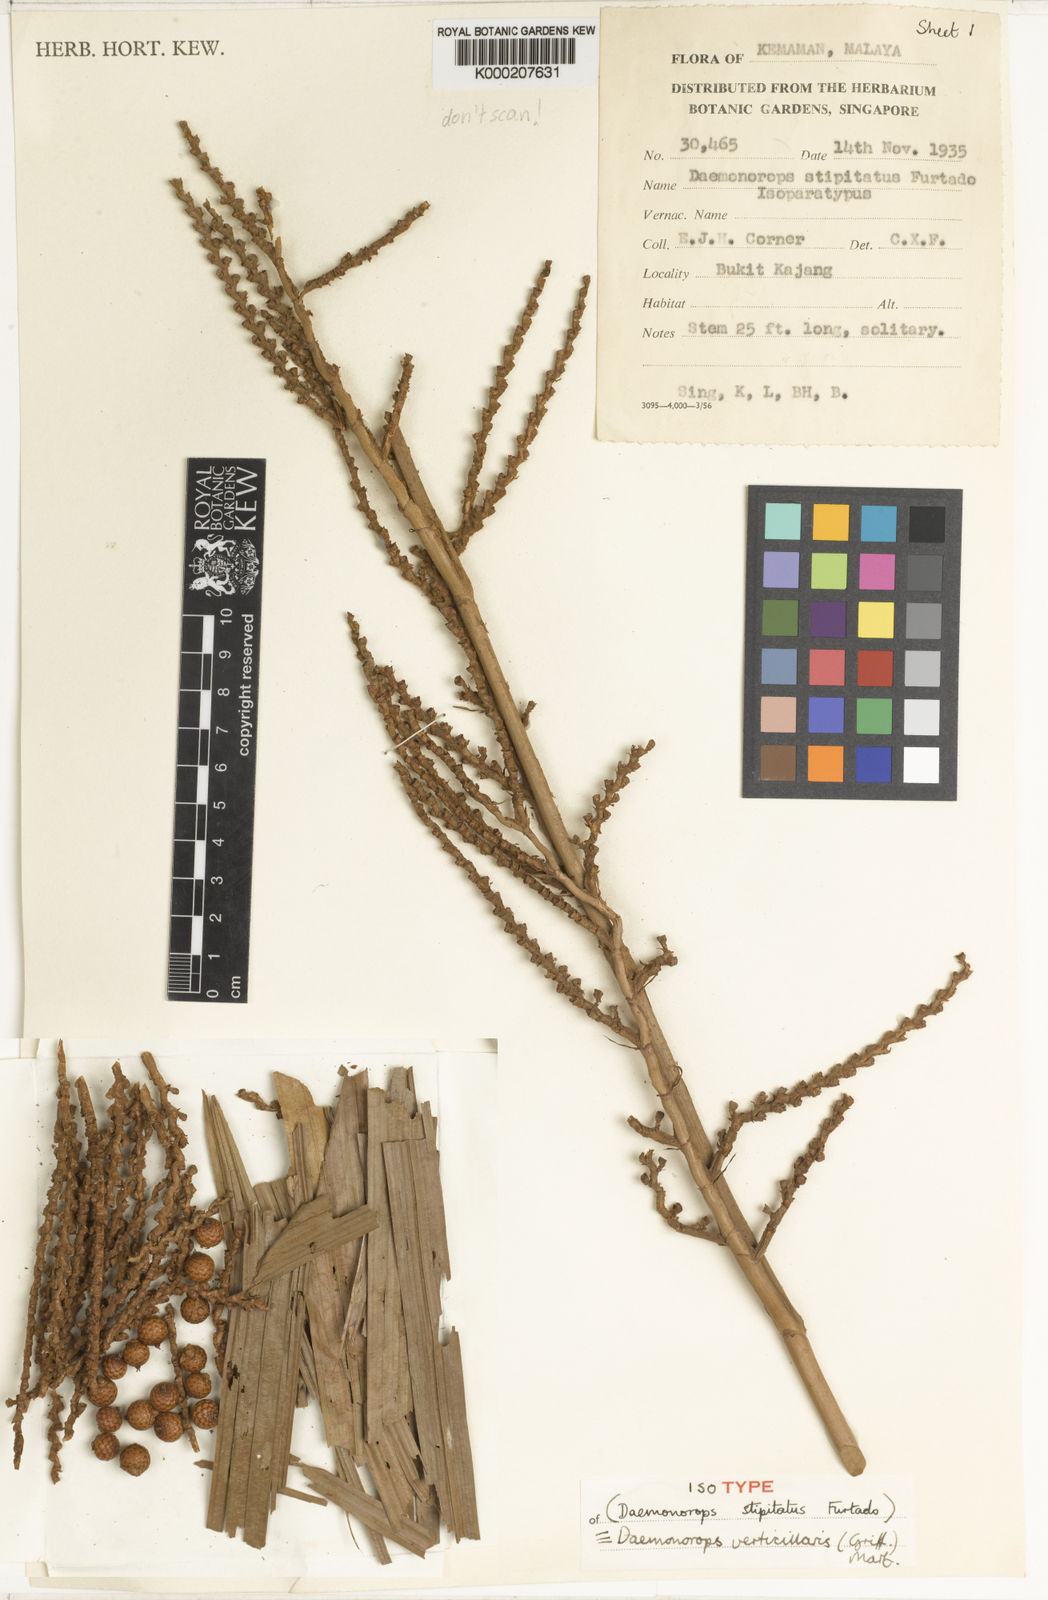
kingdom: Plantae
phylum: Tracheophyta
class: Liliopsida
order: Arecales
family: Arecaceae
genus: Calamus
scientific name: Calamus verticillaris
